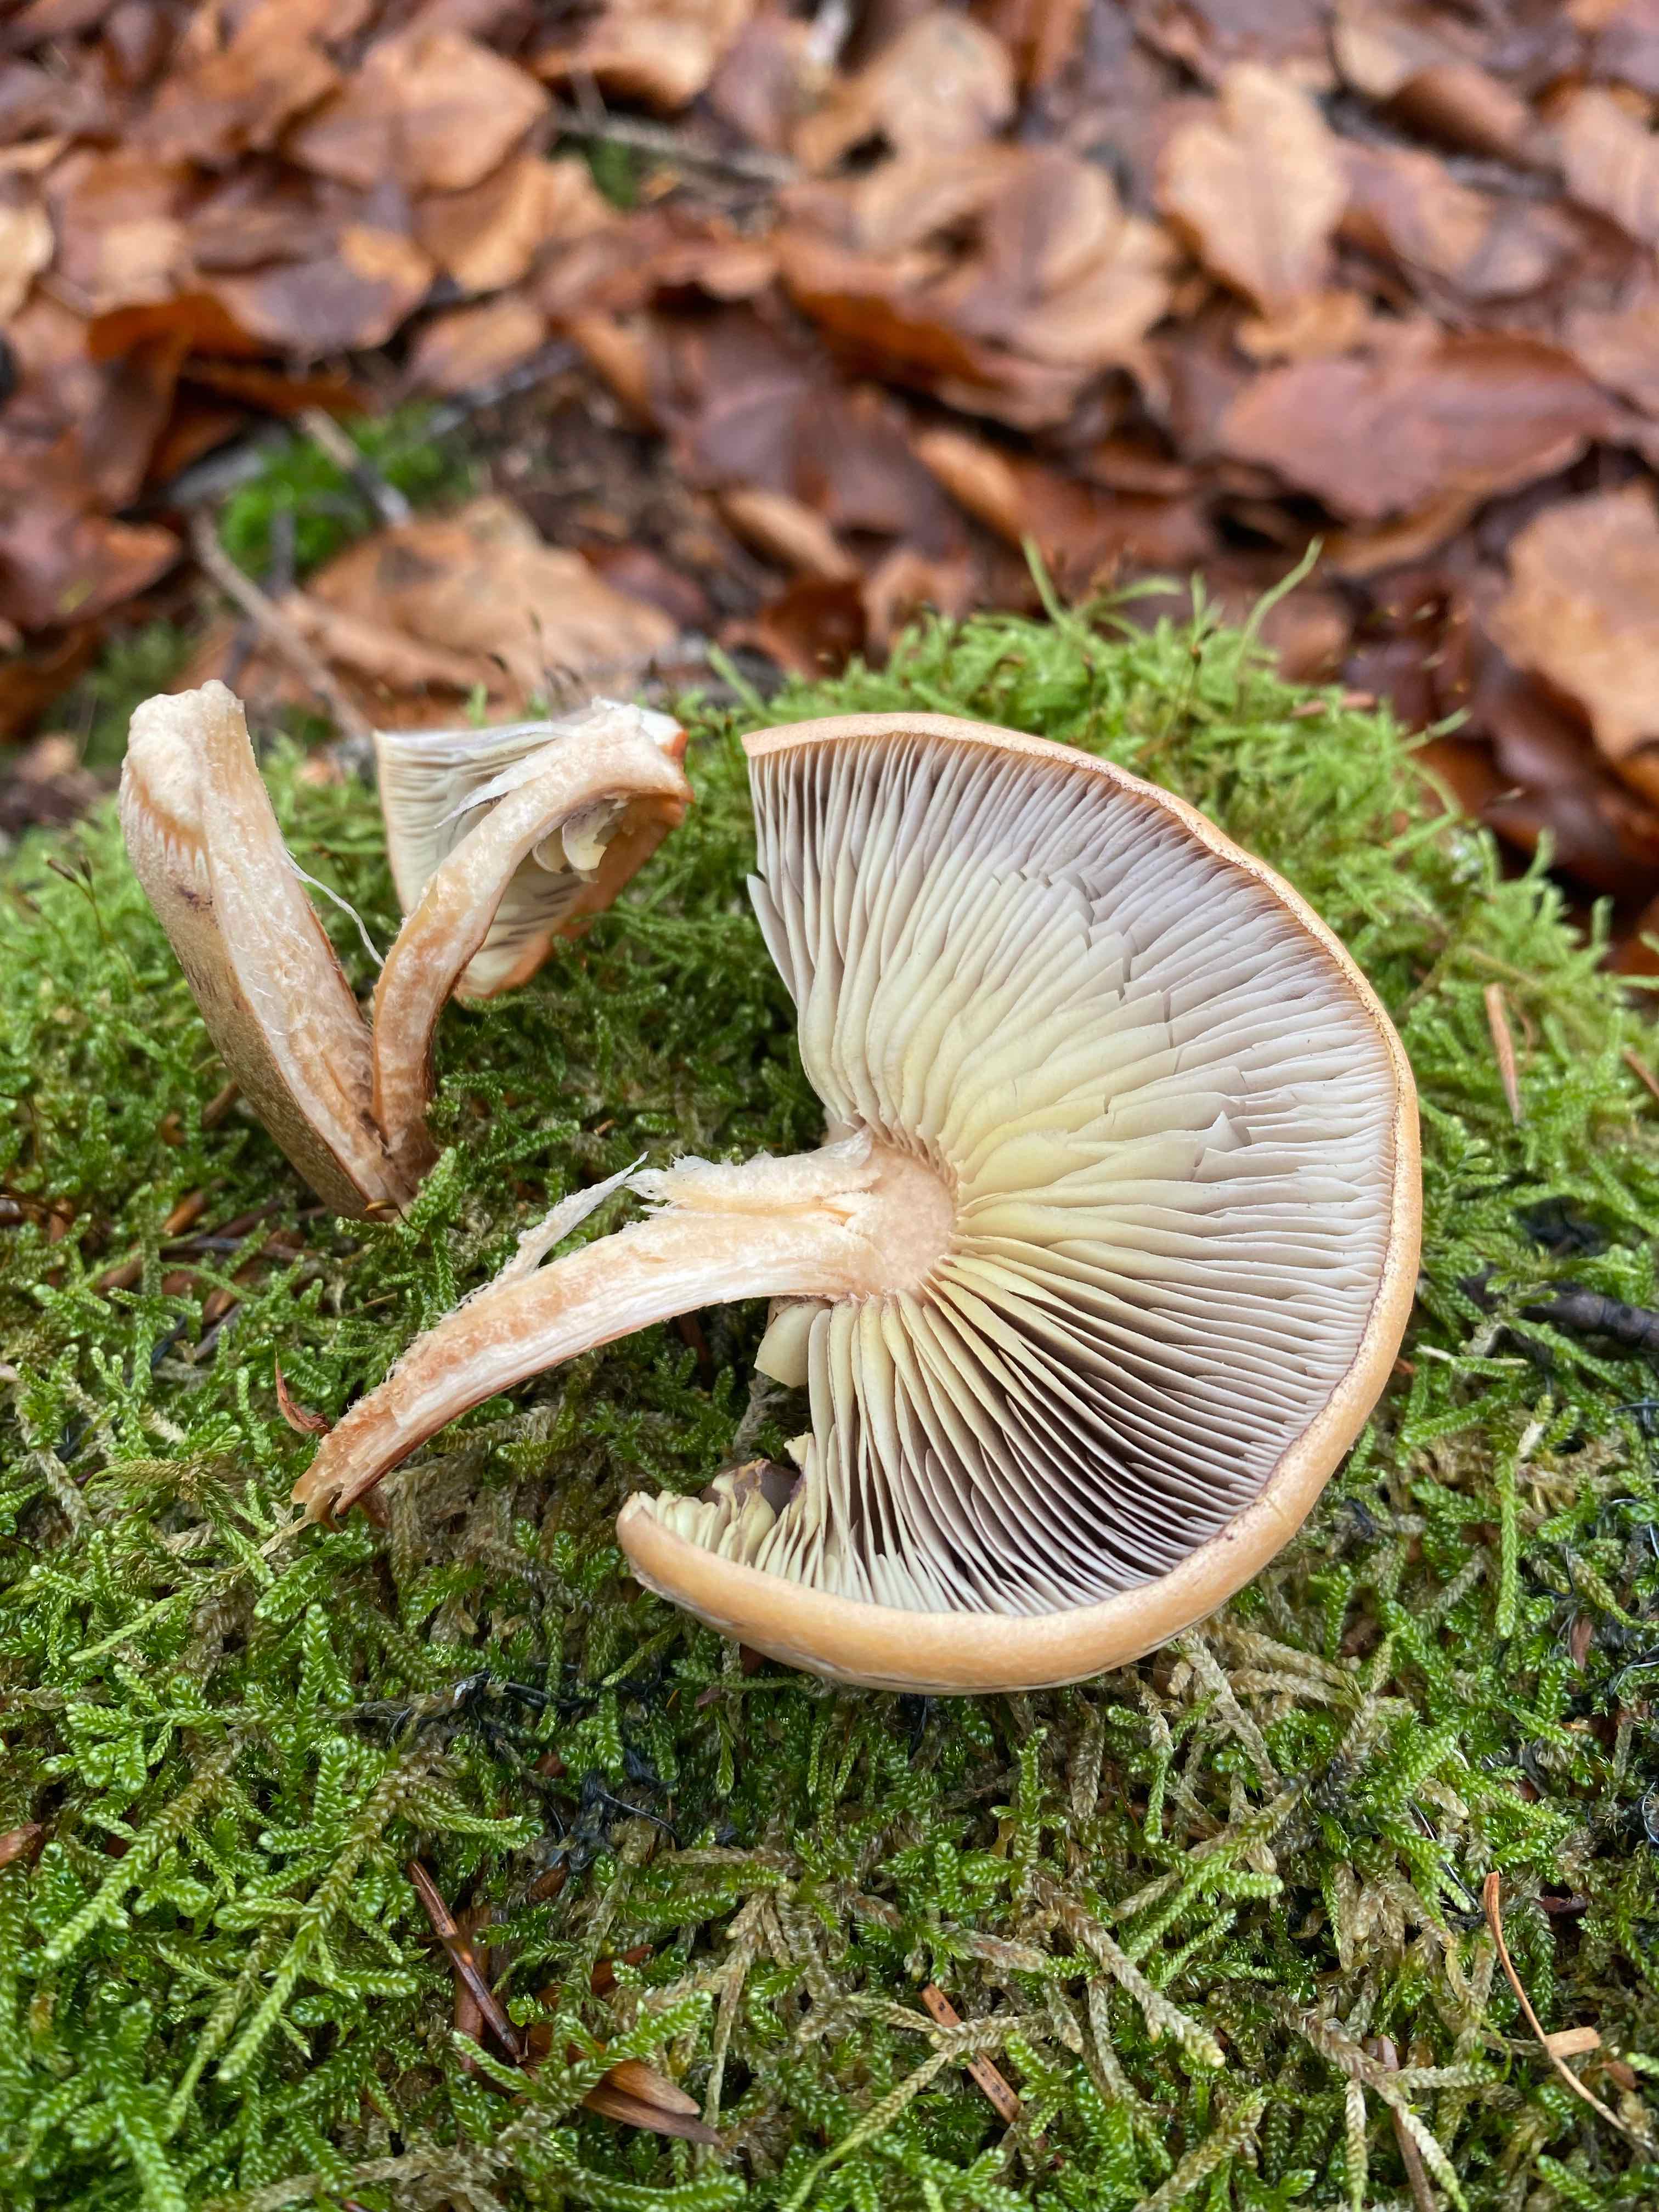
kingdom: Fungi
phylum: Basidiomycota
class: Agaricomycetes
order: Agaricales
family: Strophariaceae
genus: Hypholoma
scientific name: Hypholoma lateritium
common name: teglrød svovlhat
